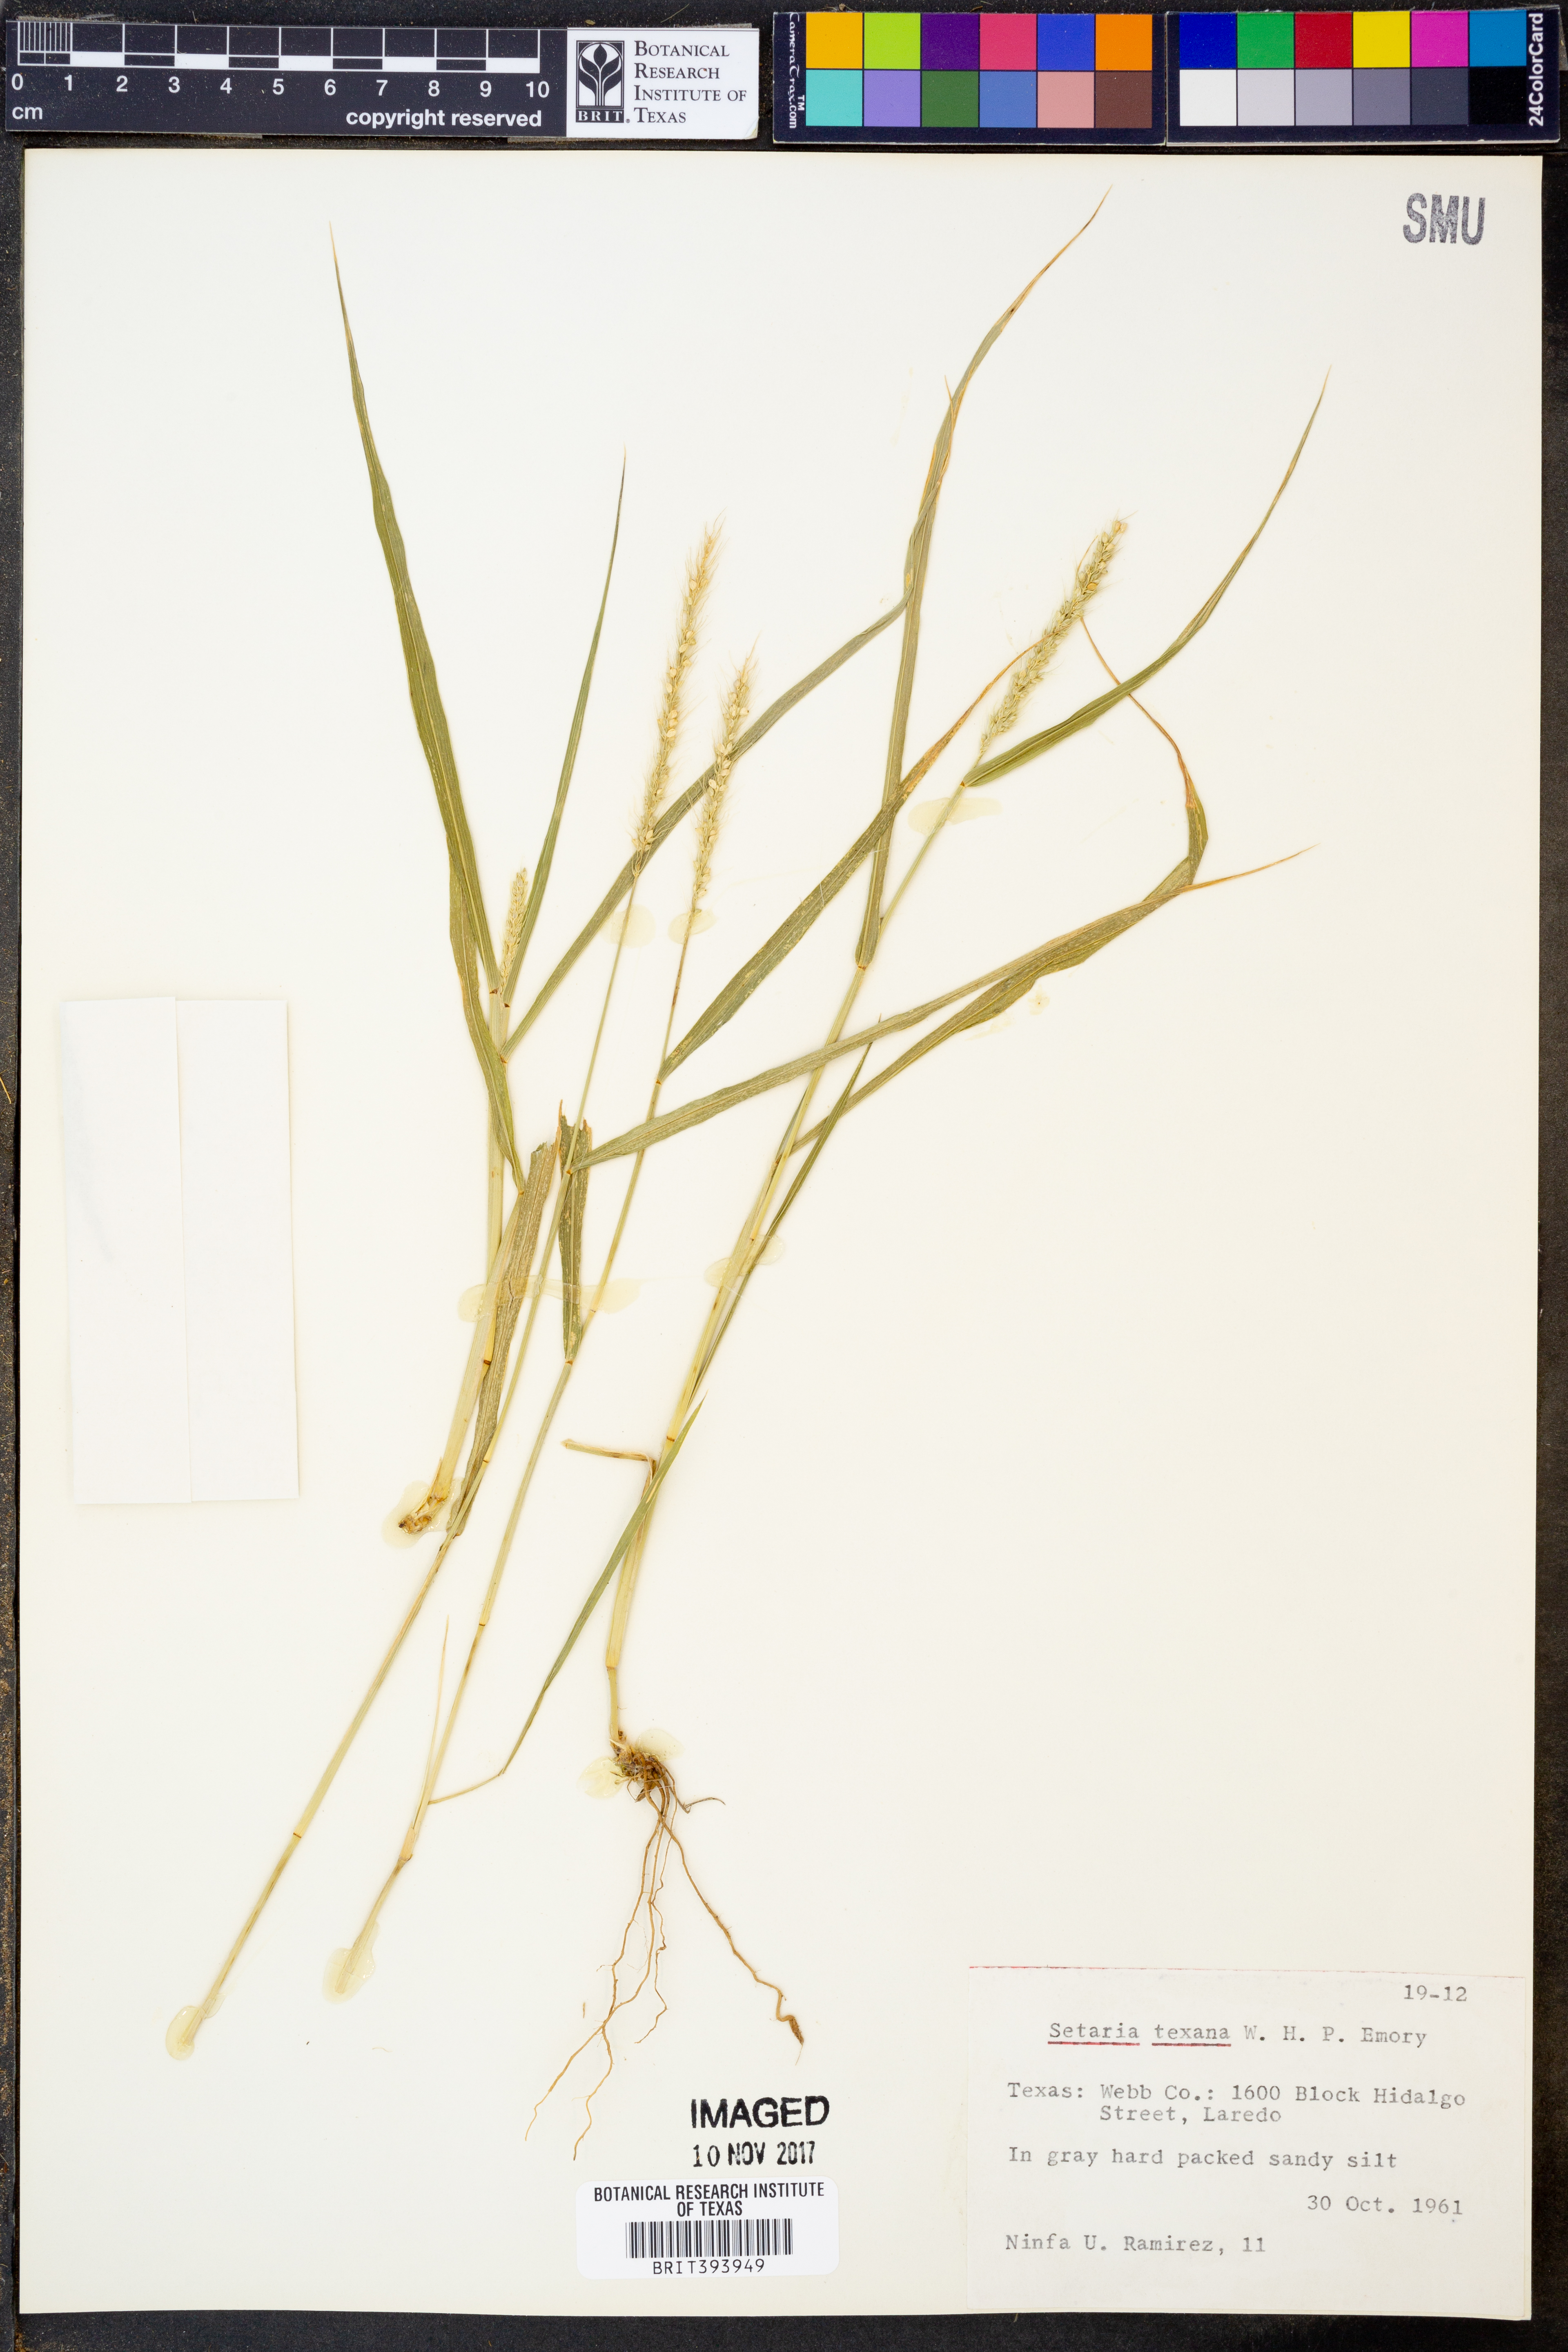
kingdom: Plantae
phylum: Tracheophyta
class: Liliopsida
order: Poales
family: Poaceae
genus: Setaria
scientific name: Setaria texana
